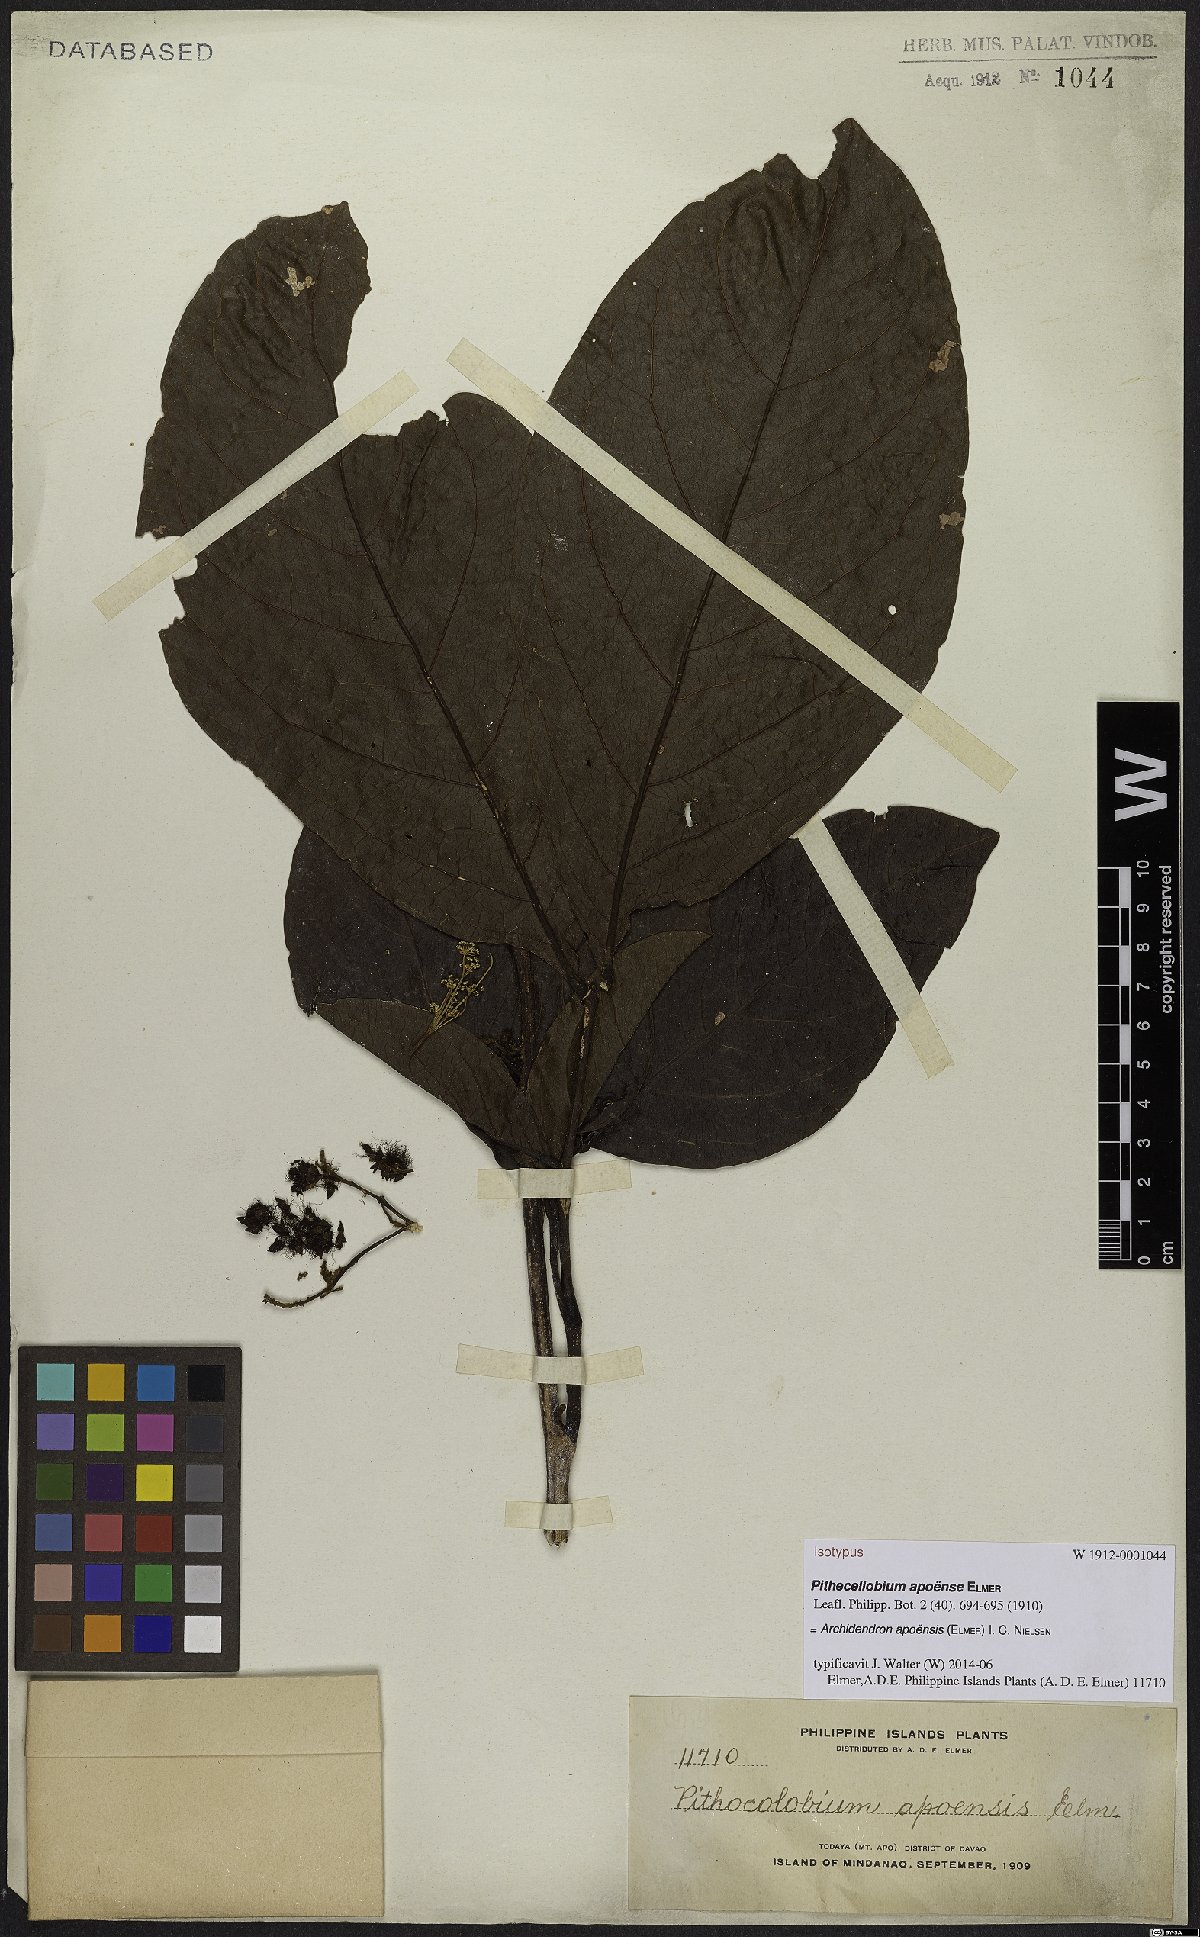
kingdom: Plantae
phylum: Tracheophyta
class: Magnoliopsida
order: Fabales
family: Fabaceae
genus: Archidendron
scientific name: Archidendron apoense
